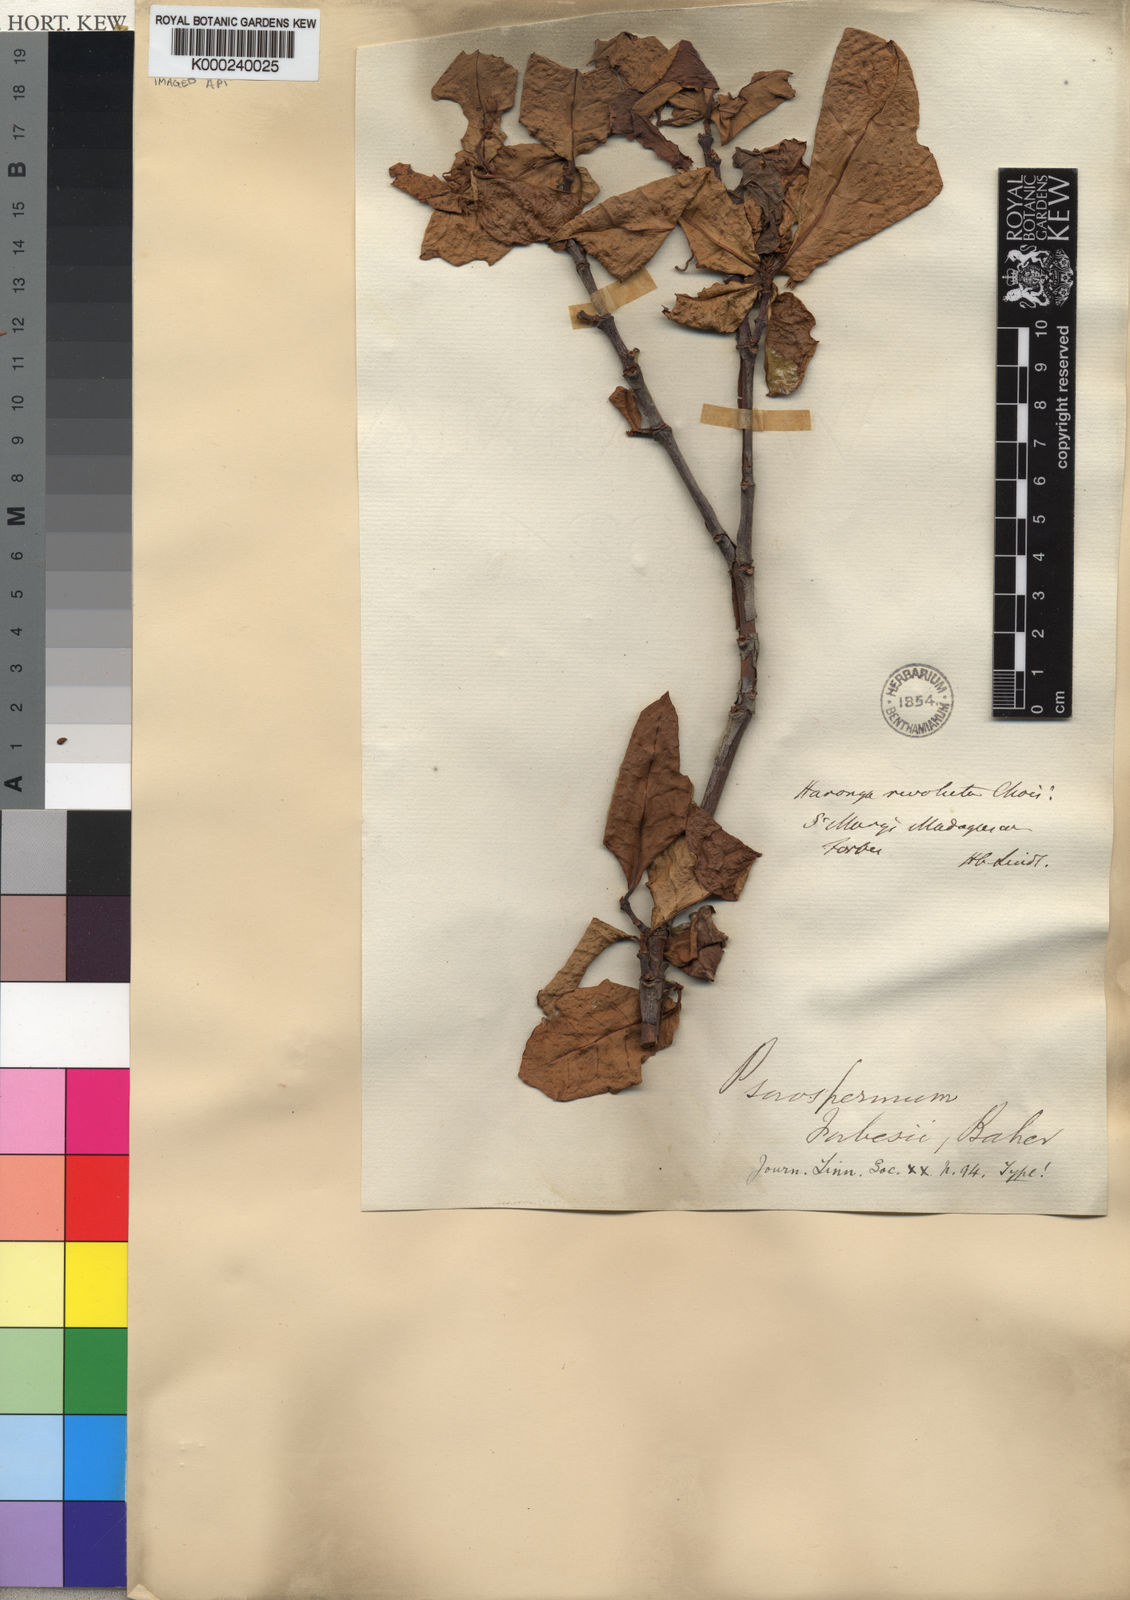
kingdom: Plantae
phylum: Tracheophyta
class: Magnoliopsida
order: Malpighiales
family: Hypericaceae
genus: Psorospermum
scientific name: Psorospermum lanceolatum
